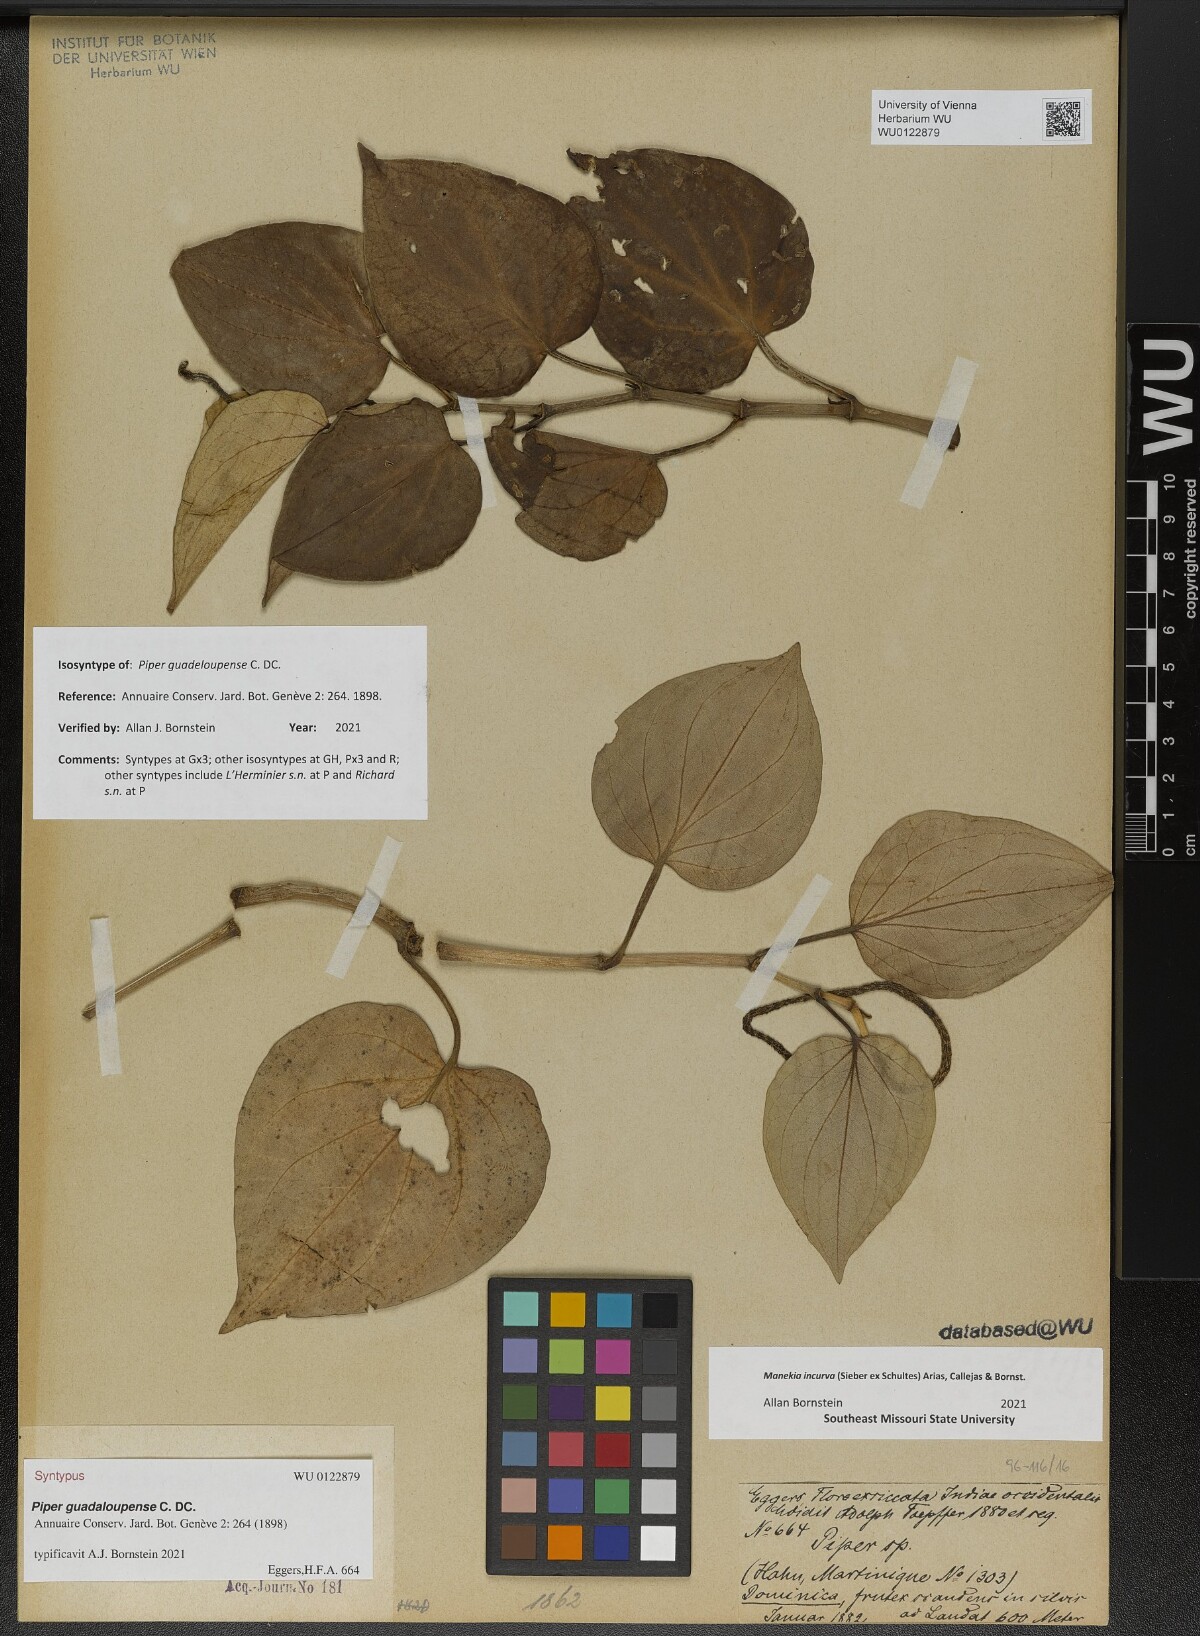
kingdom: Plantae
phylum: Tracheophyta
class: Magnoliopsida
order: Piperales
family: Piperaceae
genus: Manekia
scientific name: Manekia incurva
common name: Wild black-pepper
